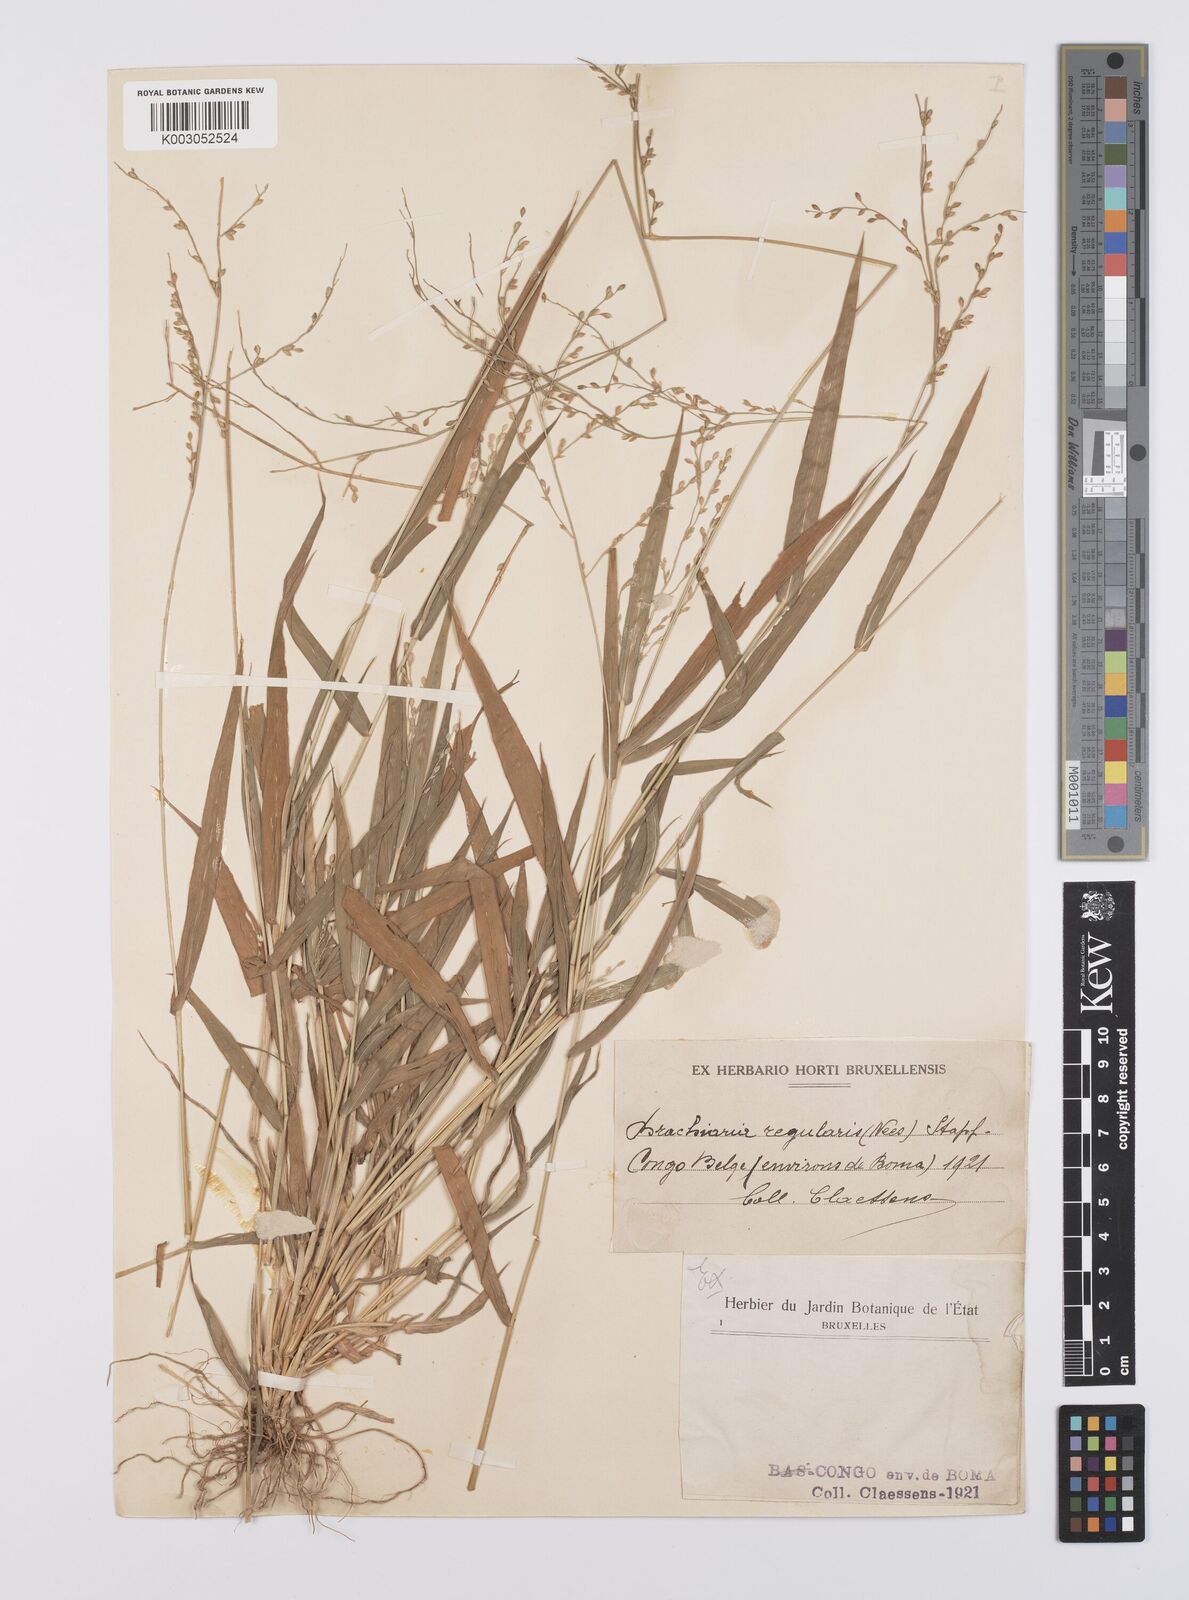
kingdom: Plantae
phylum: Tracheophyta
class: Liliopsida
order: Poales
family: Poaceae
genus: Urochloa
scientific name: Urochloa deflexa
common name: Guinea millet
